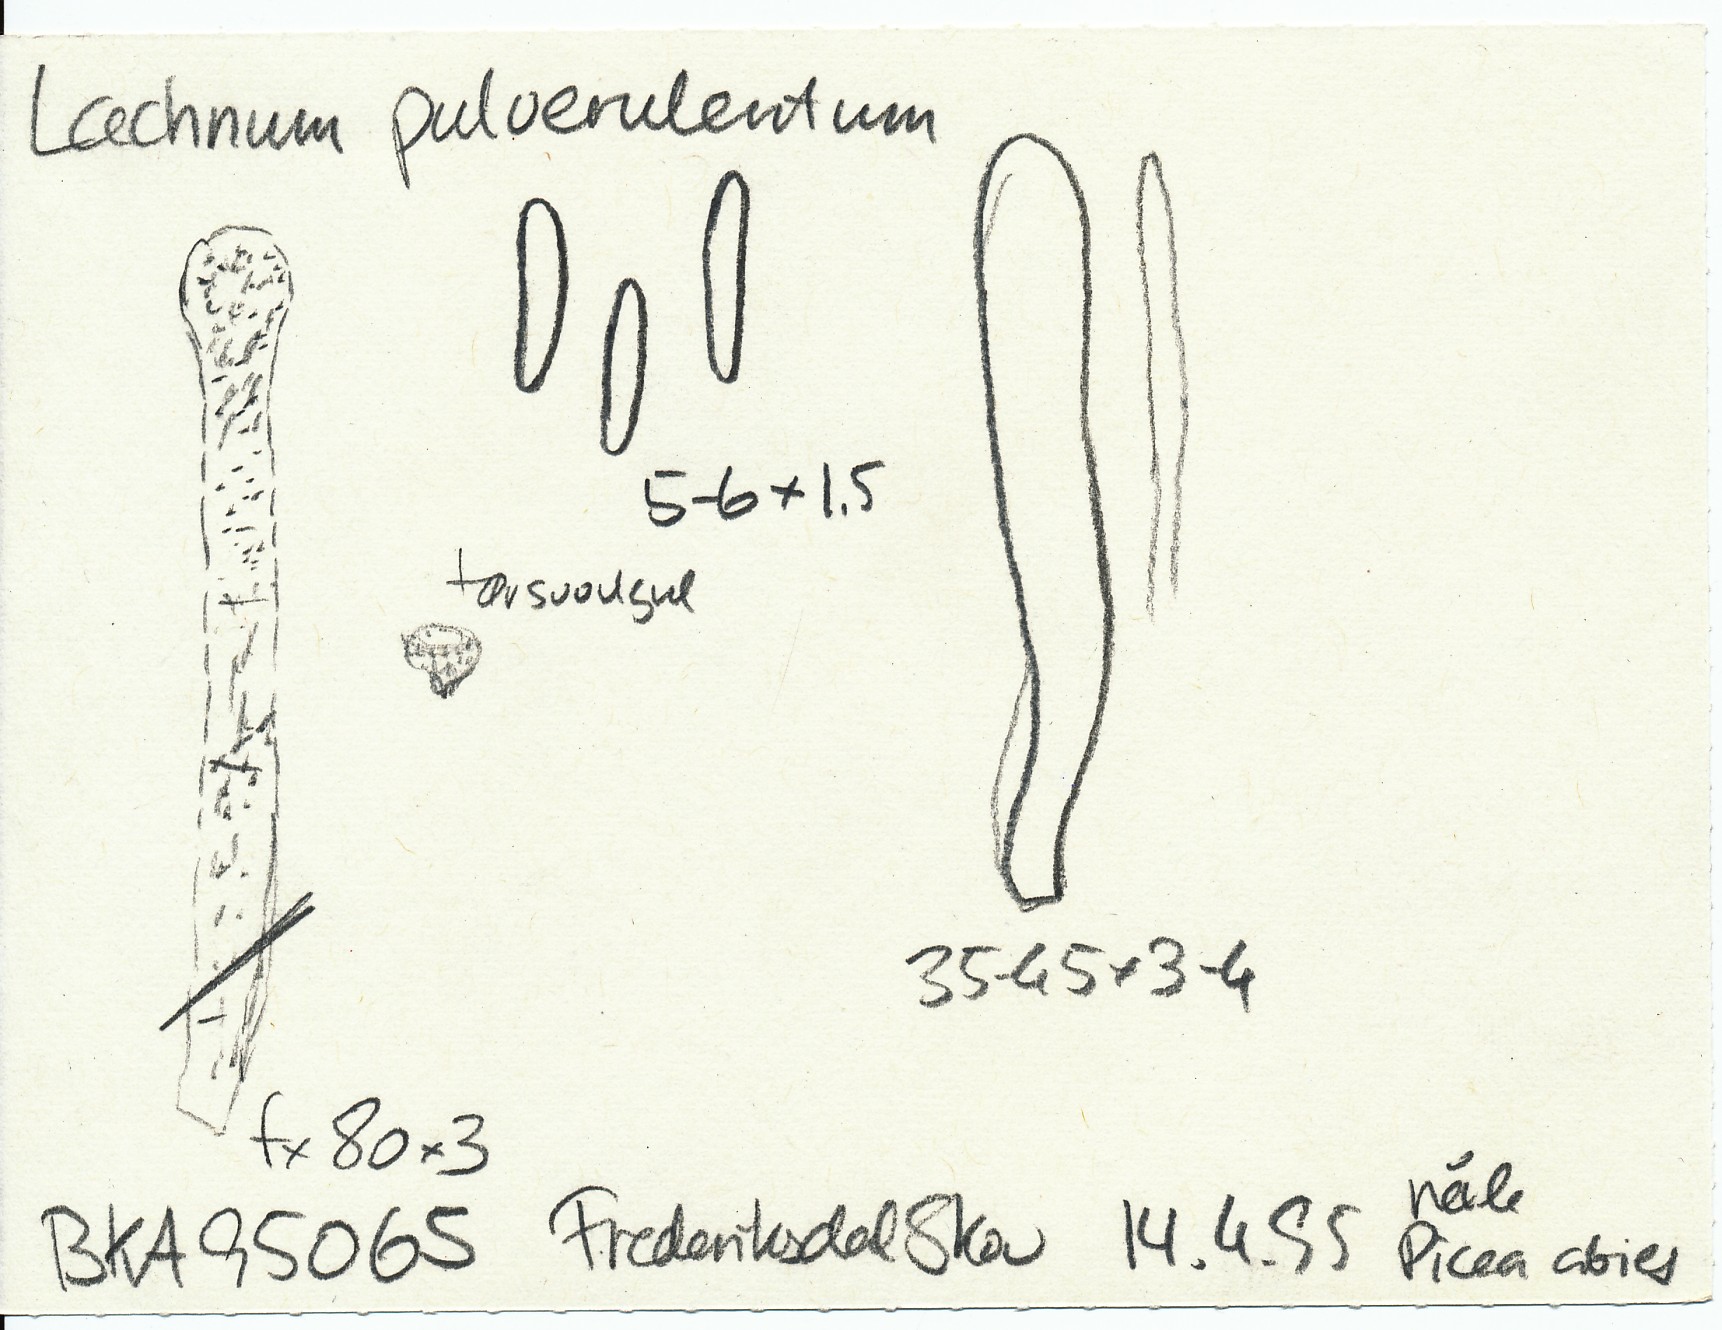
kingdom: Fungi
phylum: Ascomycota
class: Leotiomycetes
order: Helotiales
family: Lachnaceae
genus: Lachnellula
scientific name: Lachnellula pulverulenta
